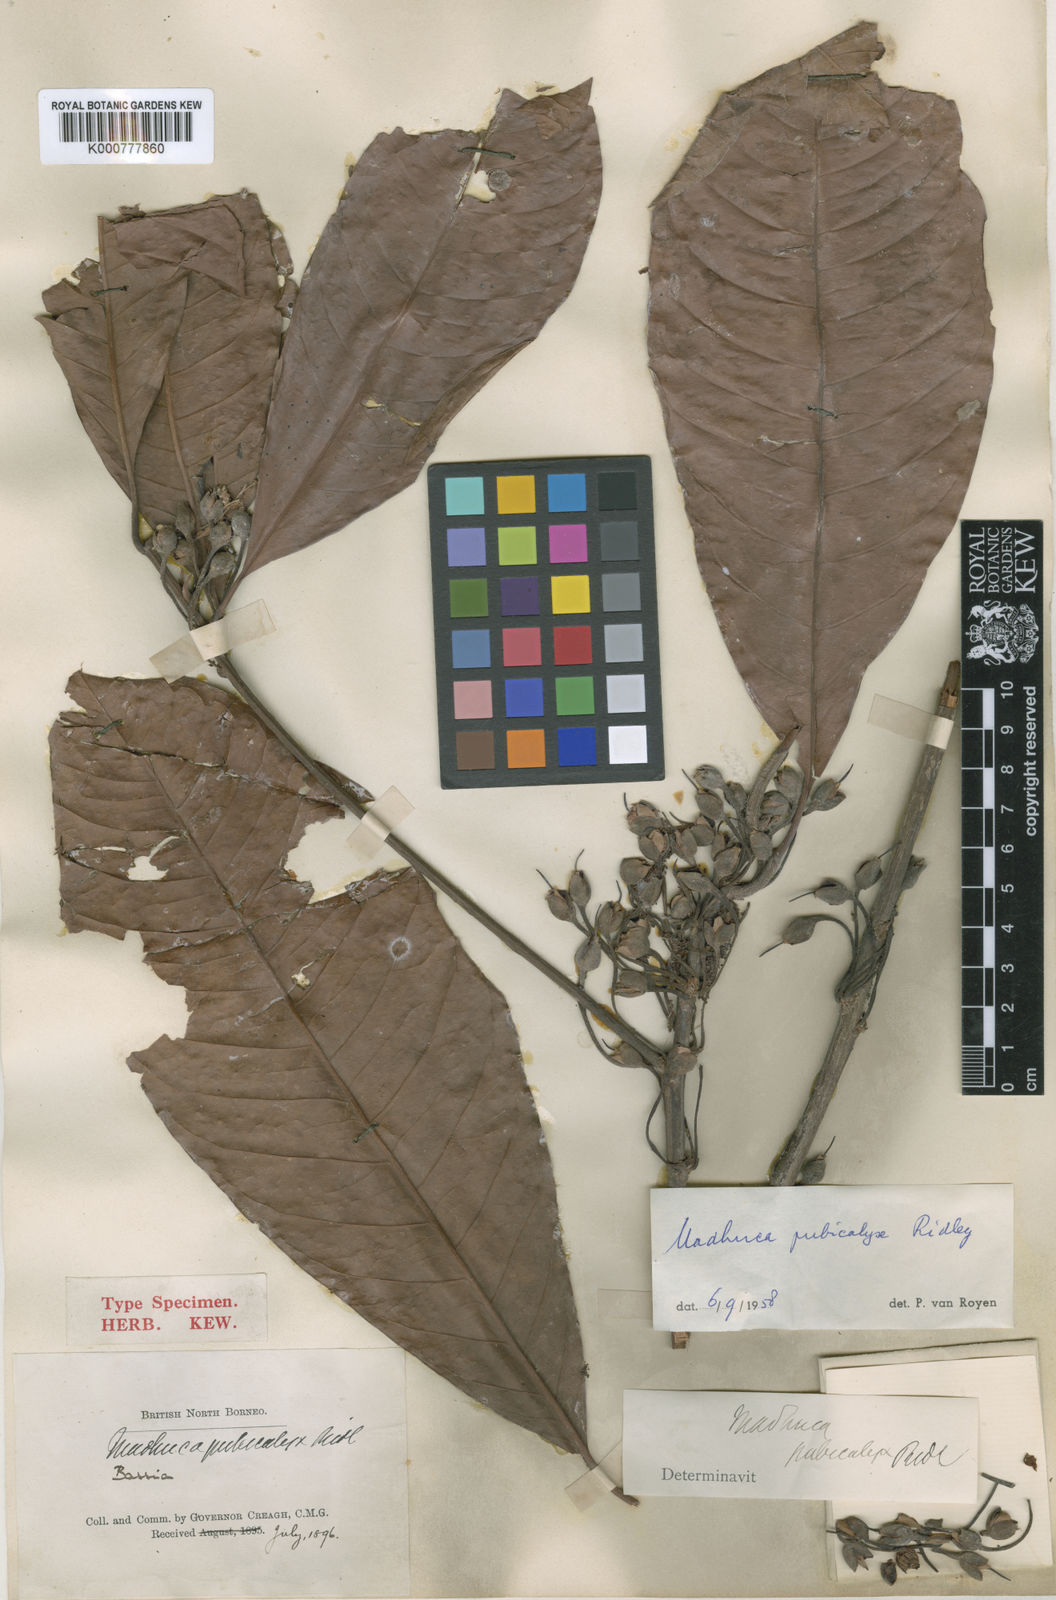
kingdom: Plantae
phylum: Tracheophyta
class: Magnoliopsida
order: Ericales
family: Sapotaceae
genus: Madhuca
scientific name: Madhuca pubicalyx
